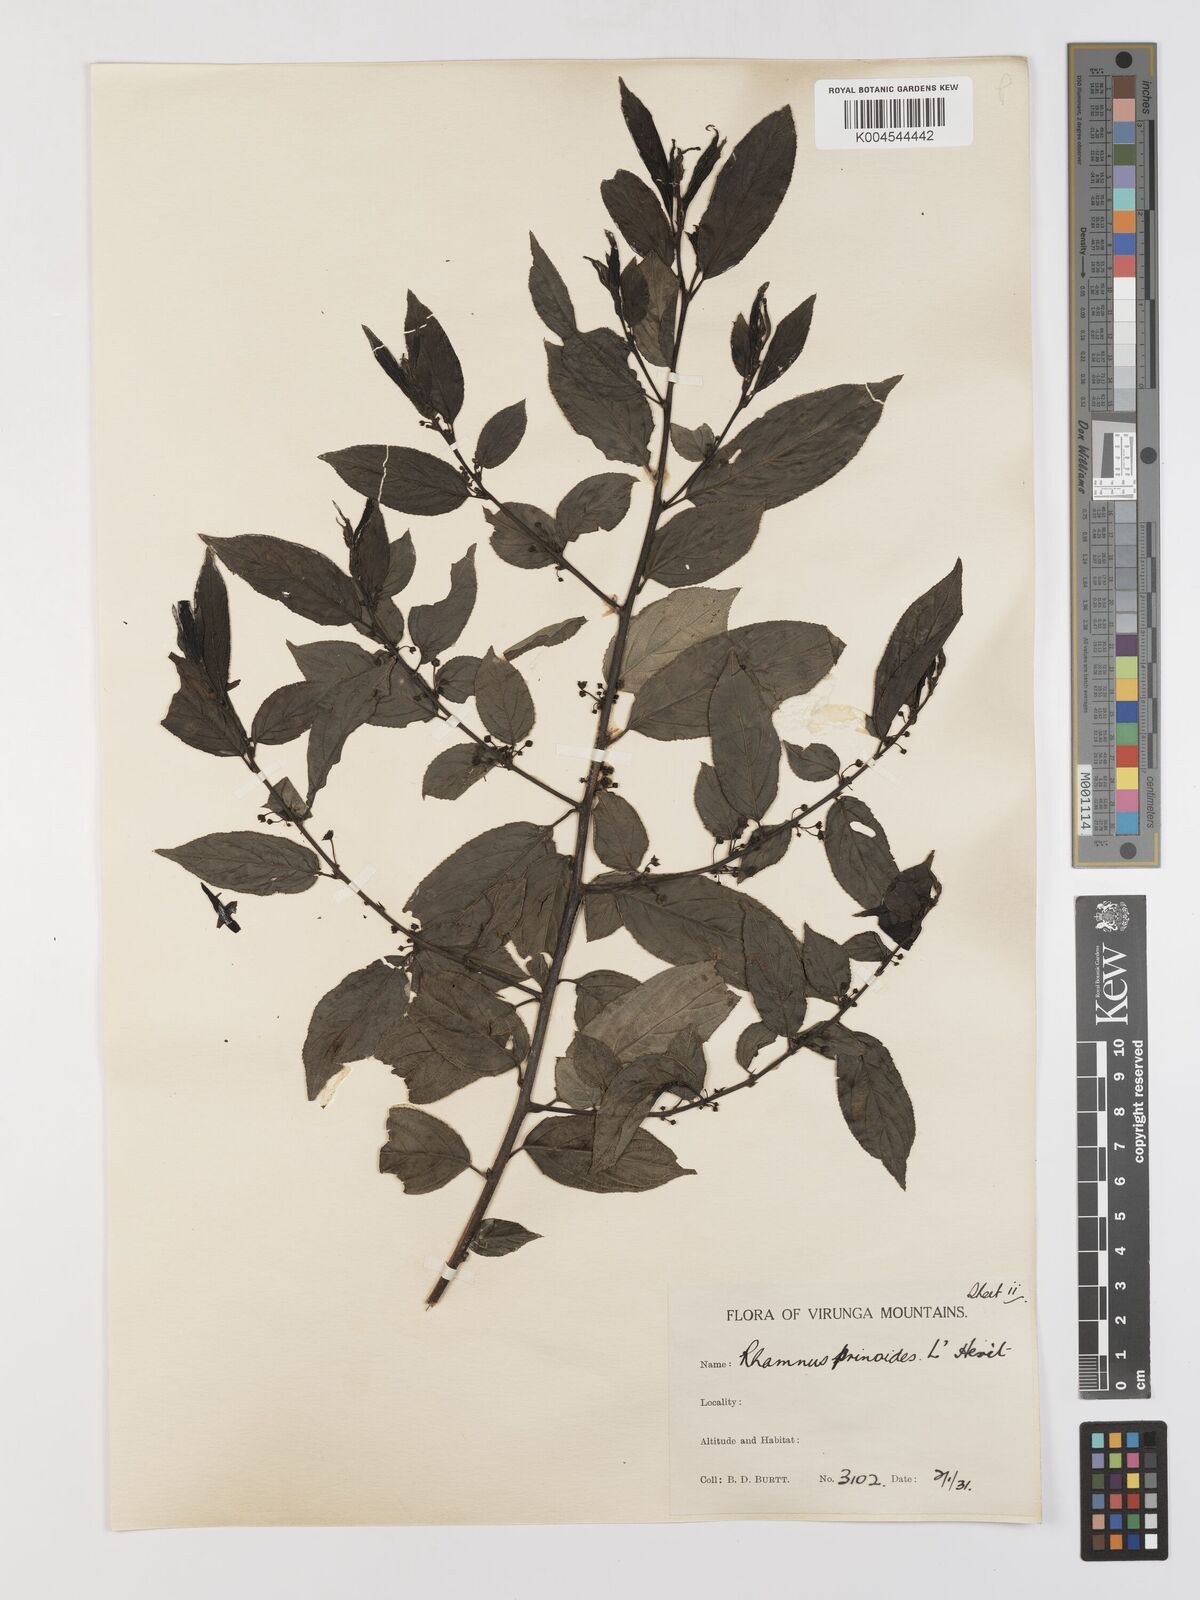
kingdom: Plantae
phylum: Tracheophyta
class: Magnoliopsida
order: Rosales
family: Rhamnaceae
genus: Rhamnus
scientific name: Rhamnus prinoides
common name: Dogwood
